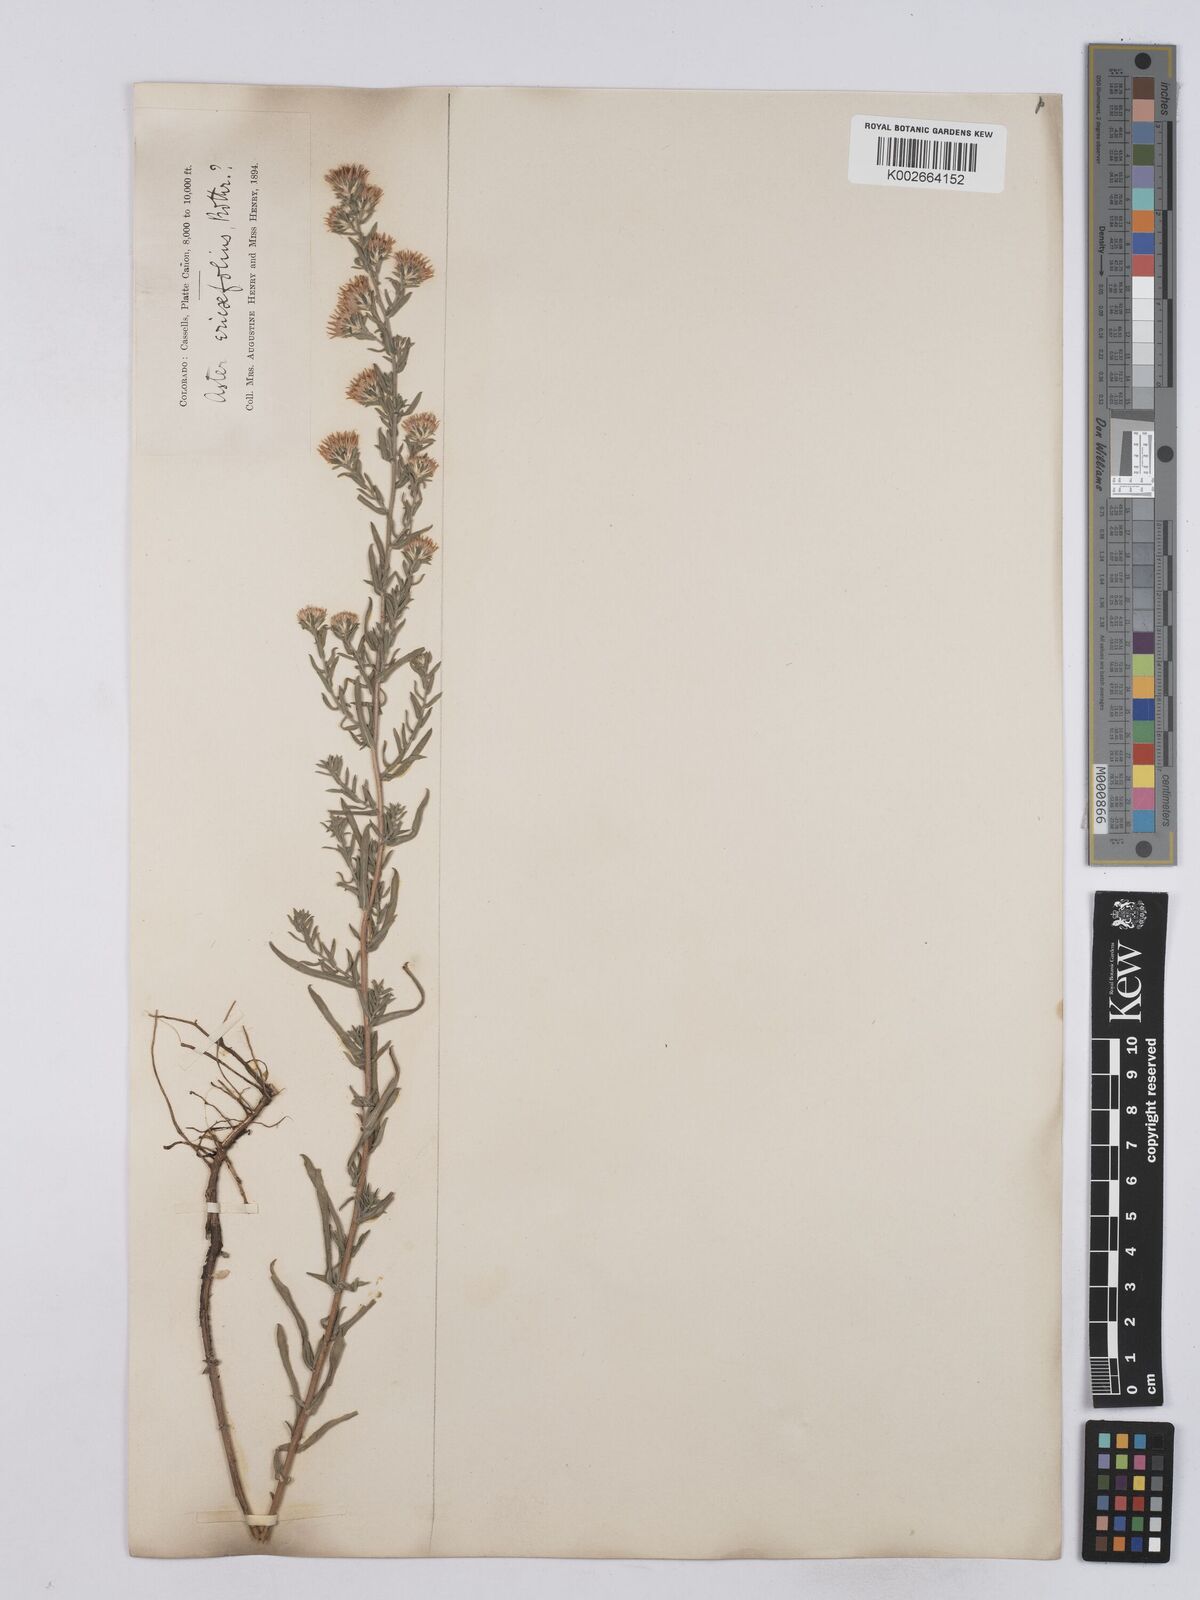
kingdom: Plantae
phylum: Tracheophyta
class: Magnoliopsida
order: Asterales
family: Asteraceae
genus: Chaetopappa
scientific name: Chaetopappa ericoides
